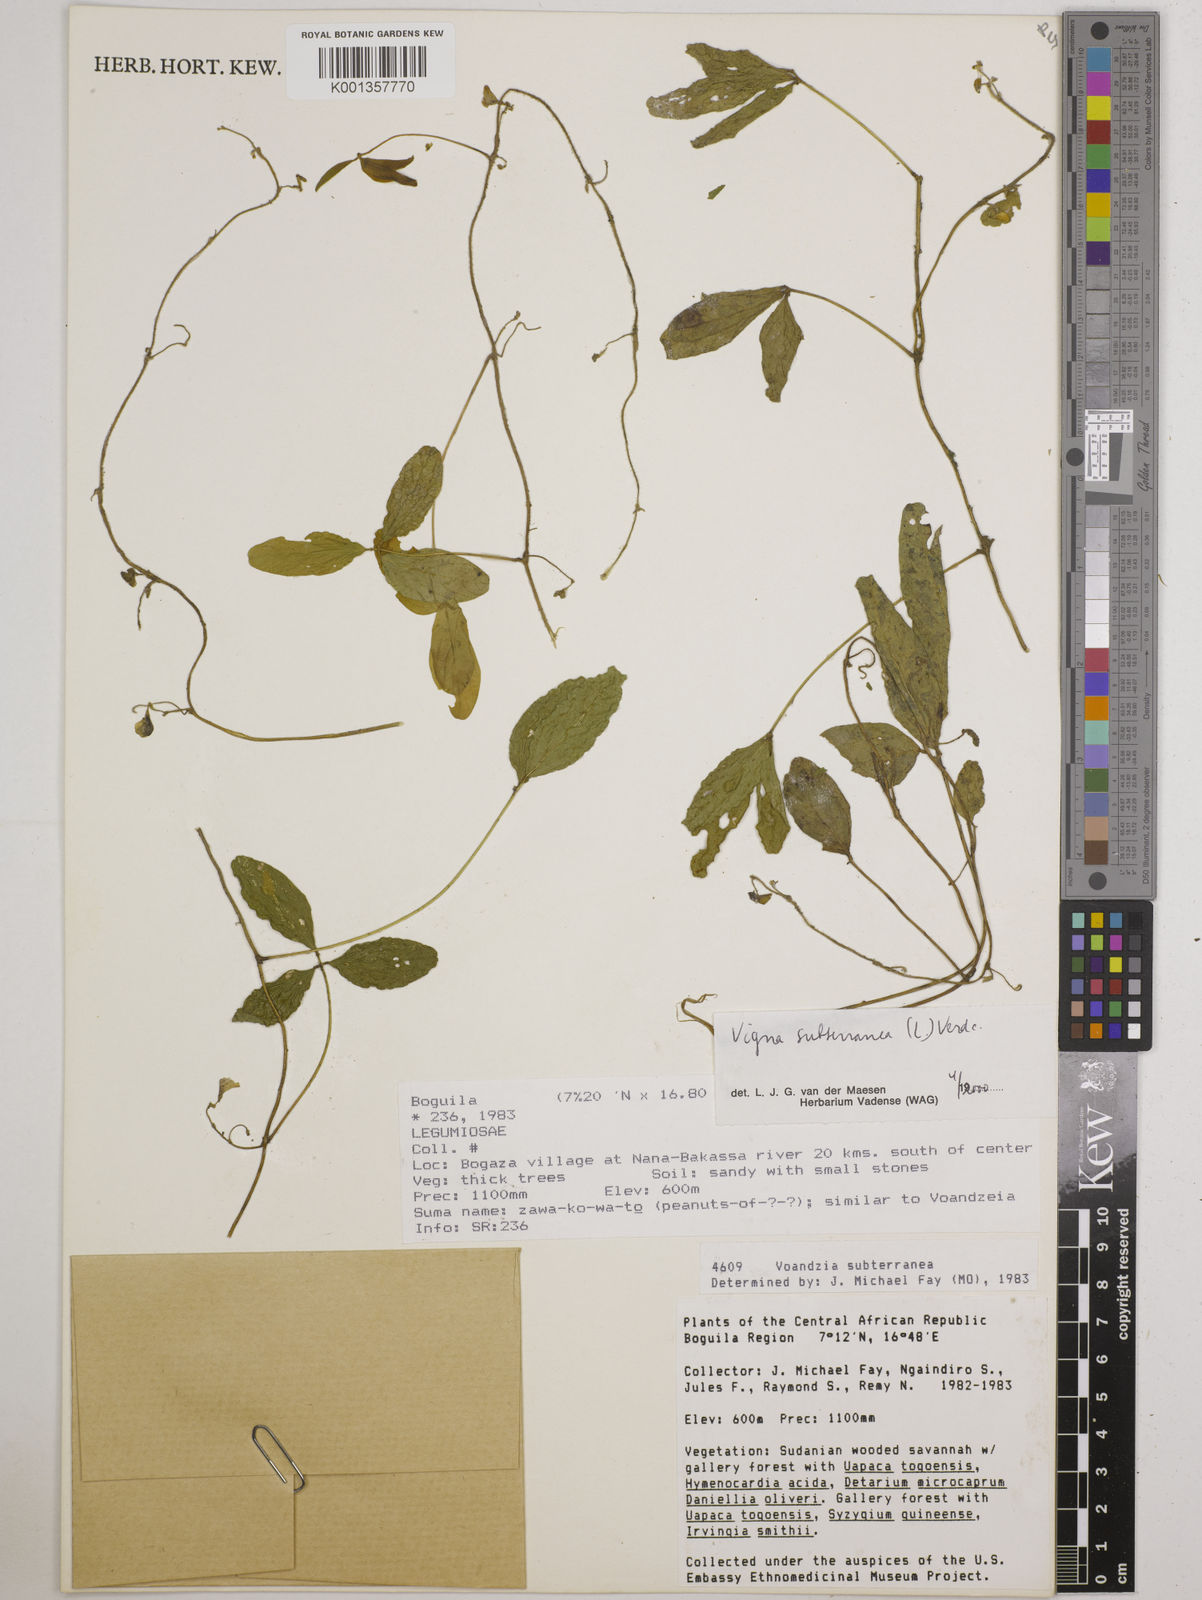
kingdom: Plantae
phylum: Tracheophyta
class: Magnoliopsida
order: Fabales
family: Fabaceae
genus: Vigna
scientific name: Vigna subterranea
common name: Bambara groundnut
